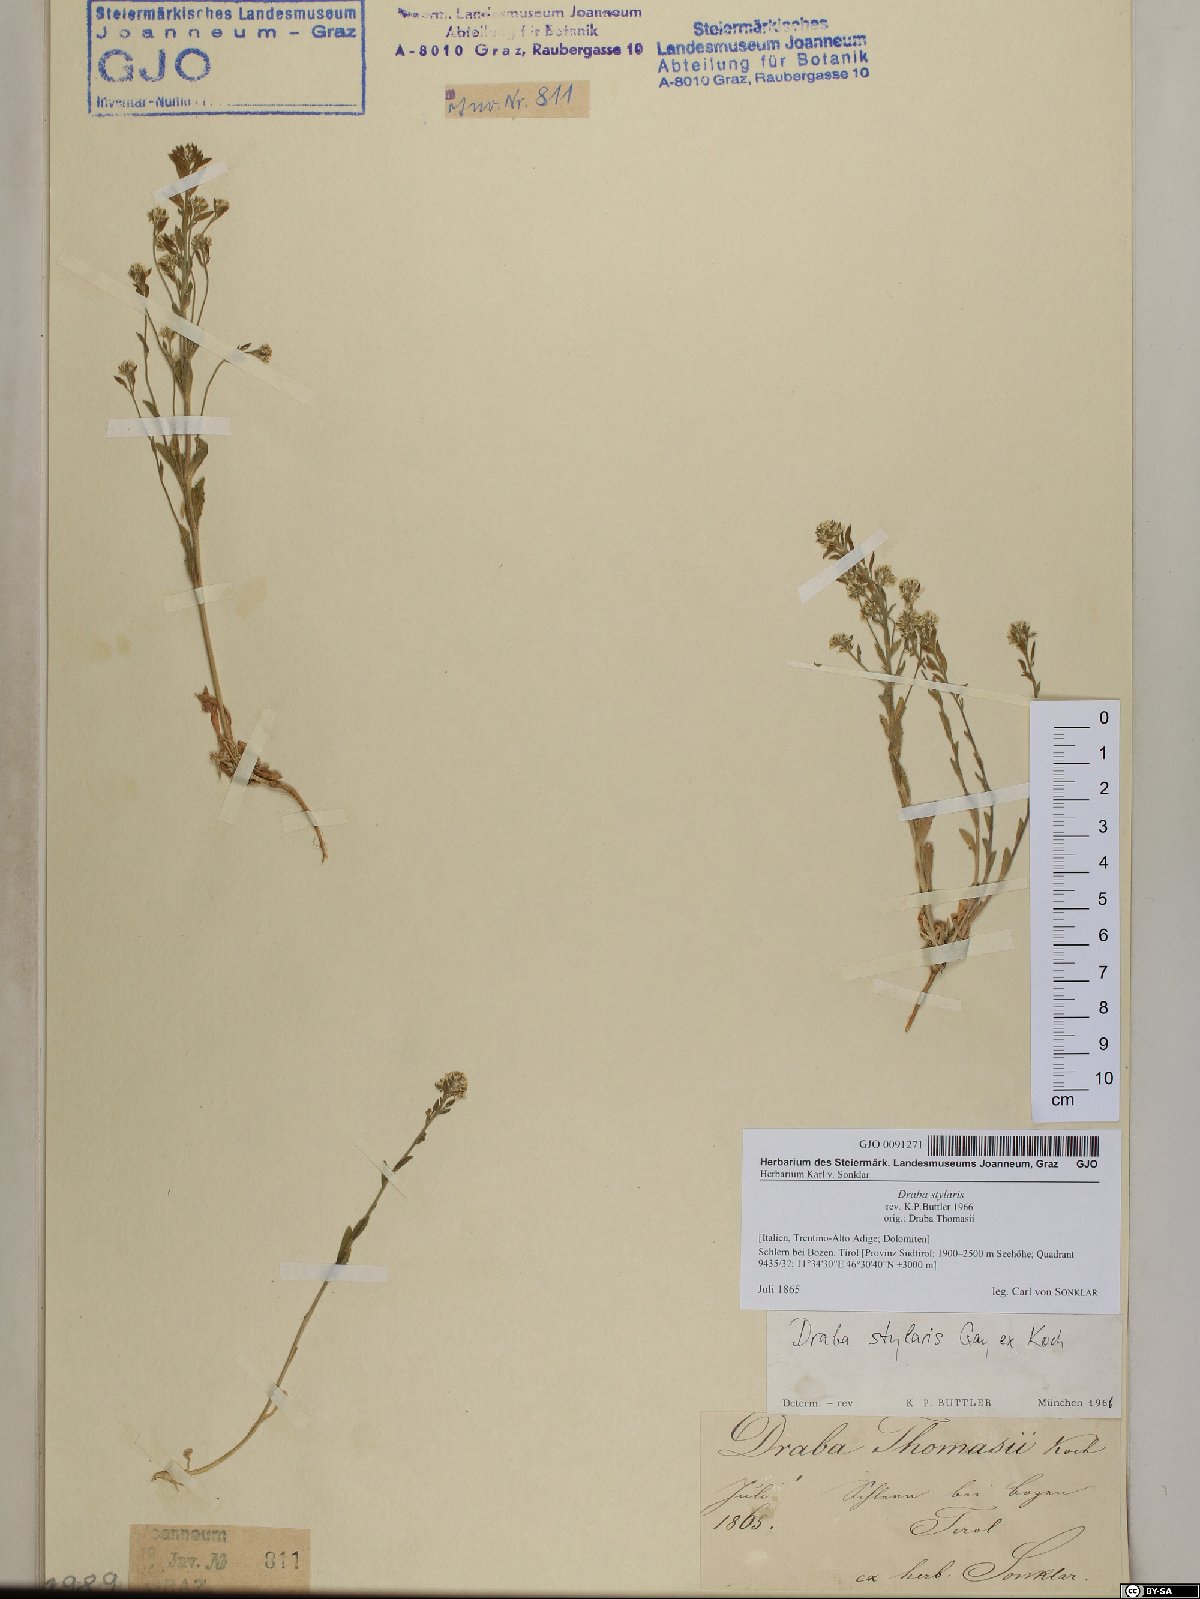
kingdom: Plantae
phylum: Tracheophyta
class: Magnoliopsida
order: Brassicales
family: Brassicaceae
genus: Draba
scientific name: Draba thomasii
